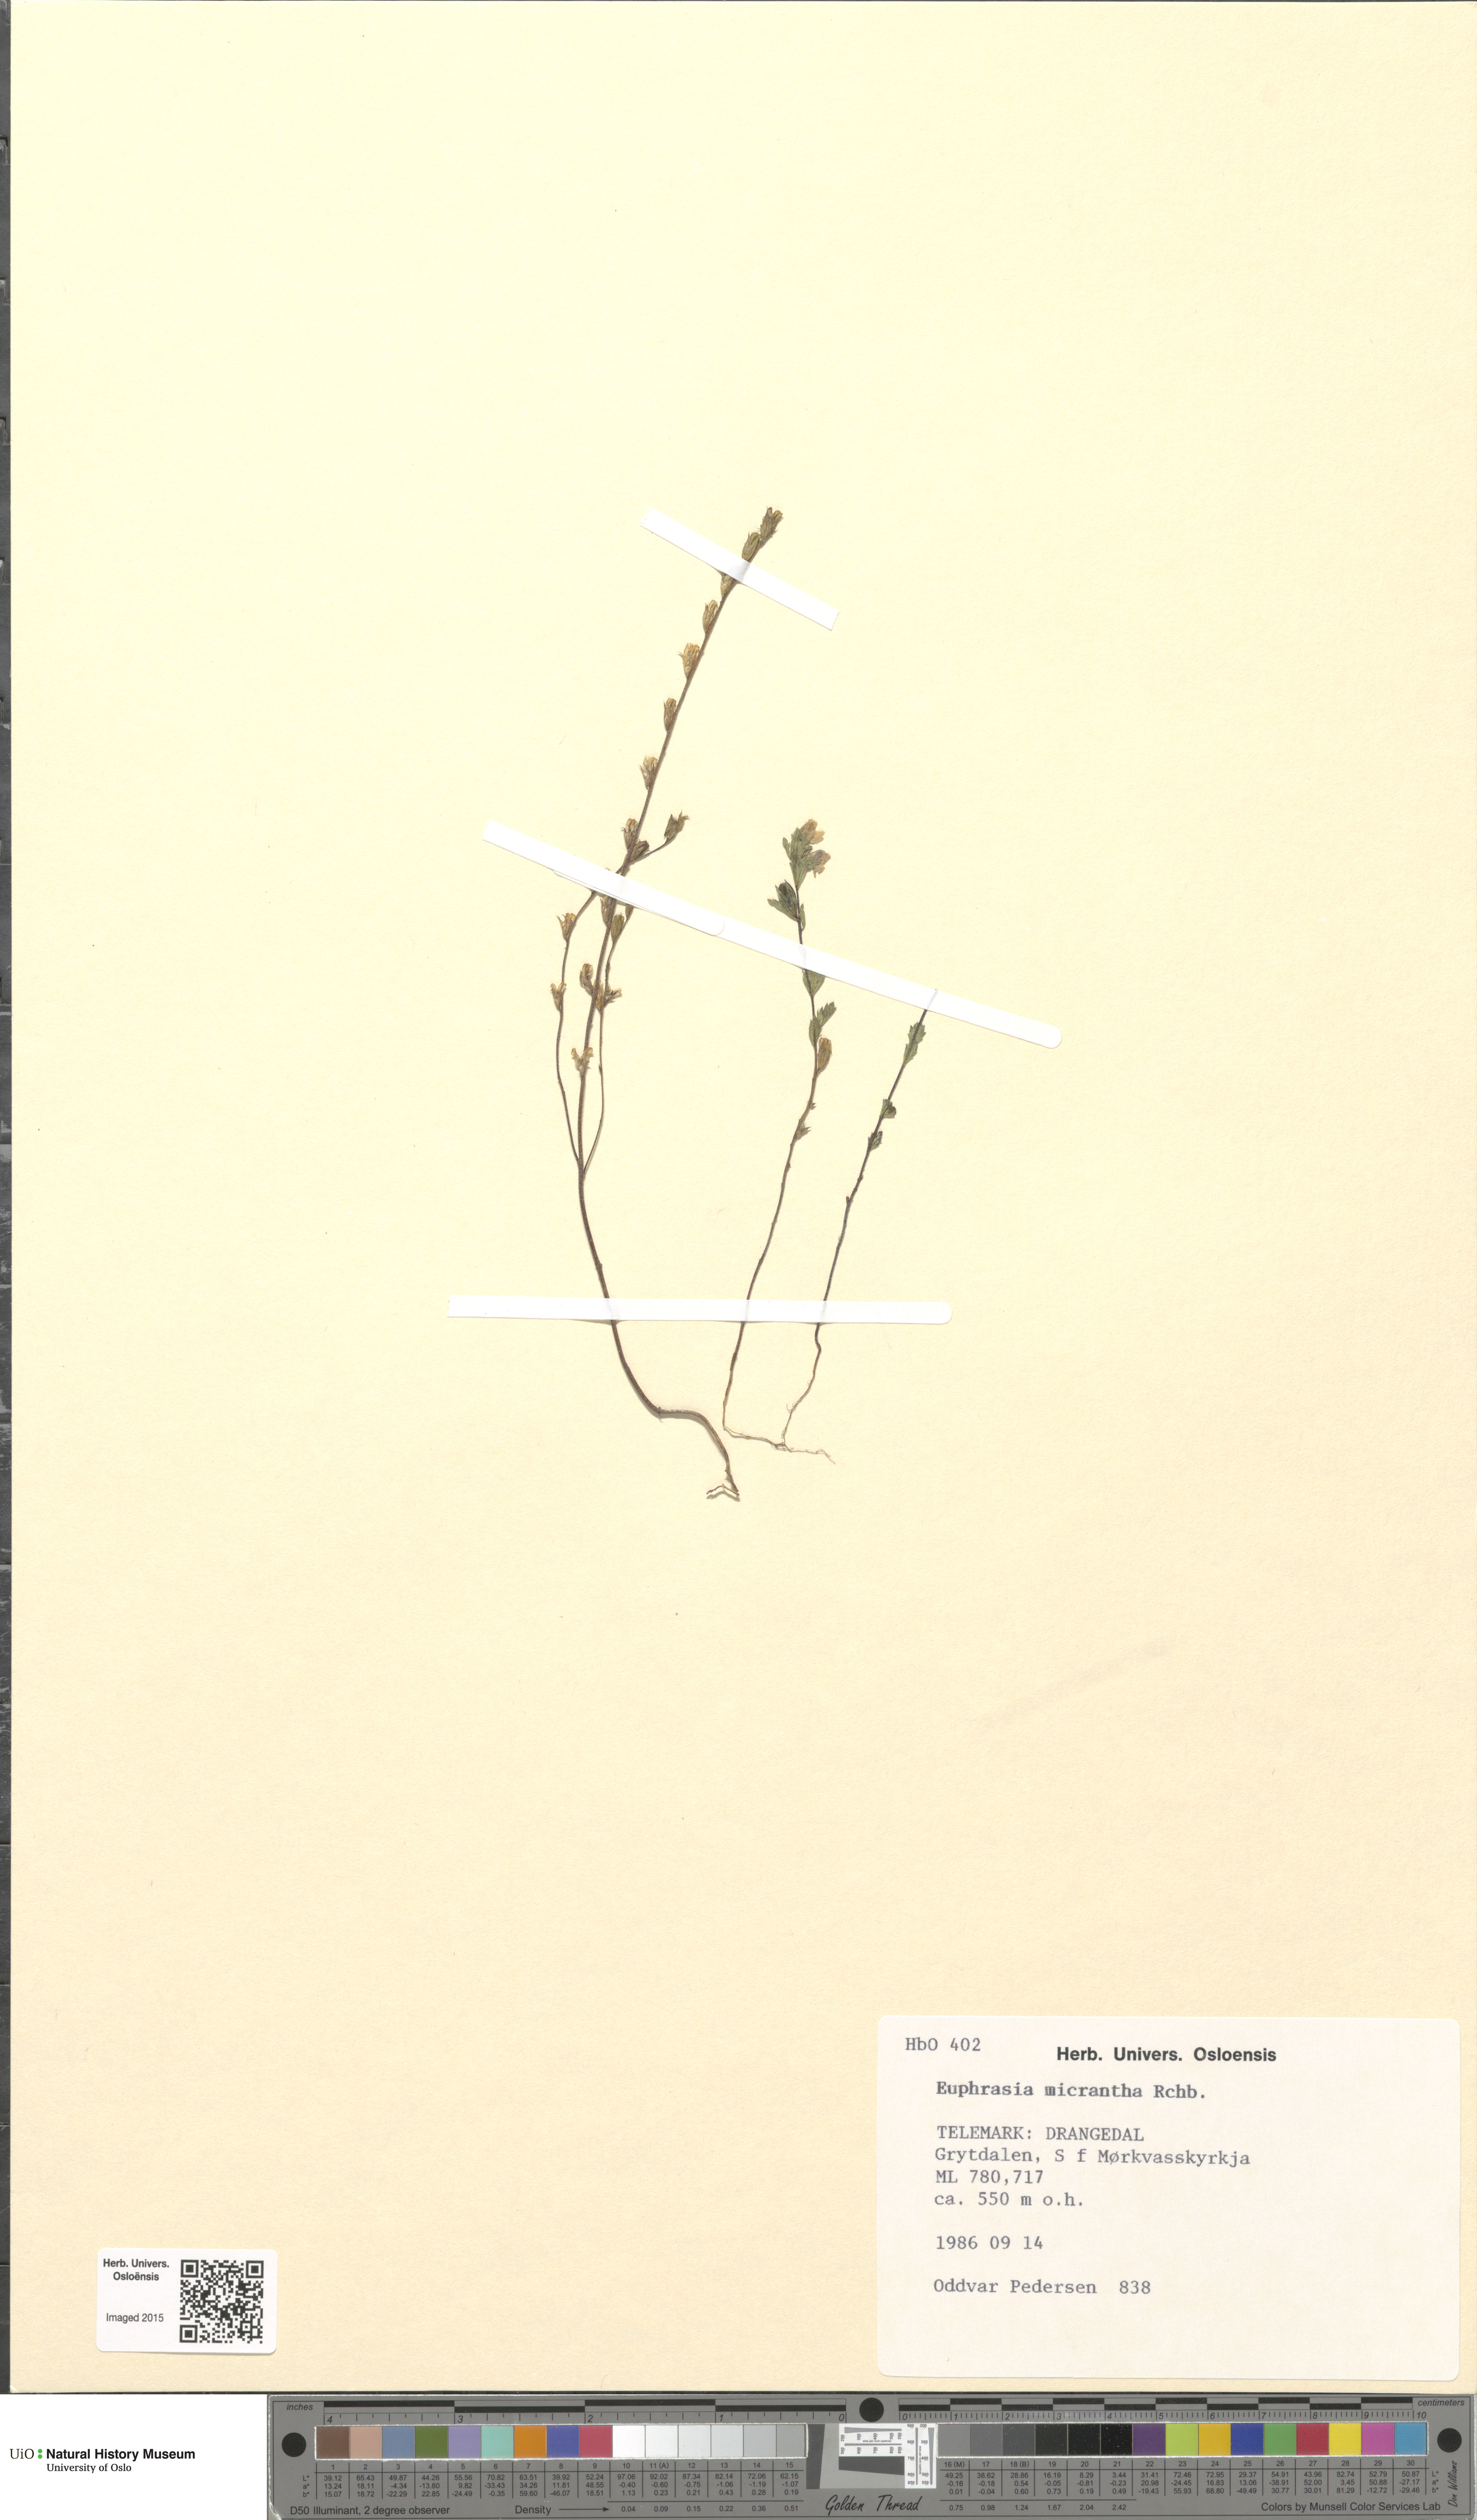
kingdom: Plantae
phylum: Tracheophyta
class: Magnoliopsida
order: Lamiales
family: Orobanchaceae
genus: Euphrasia
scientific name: Euphrasia micrantha
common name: Northern eyebright
